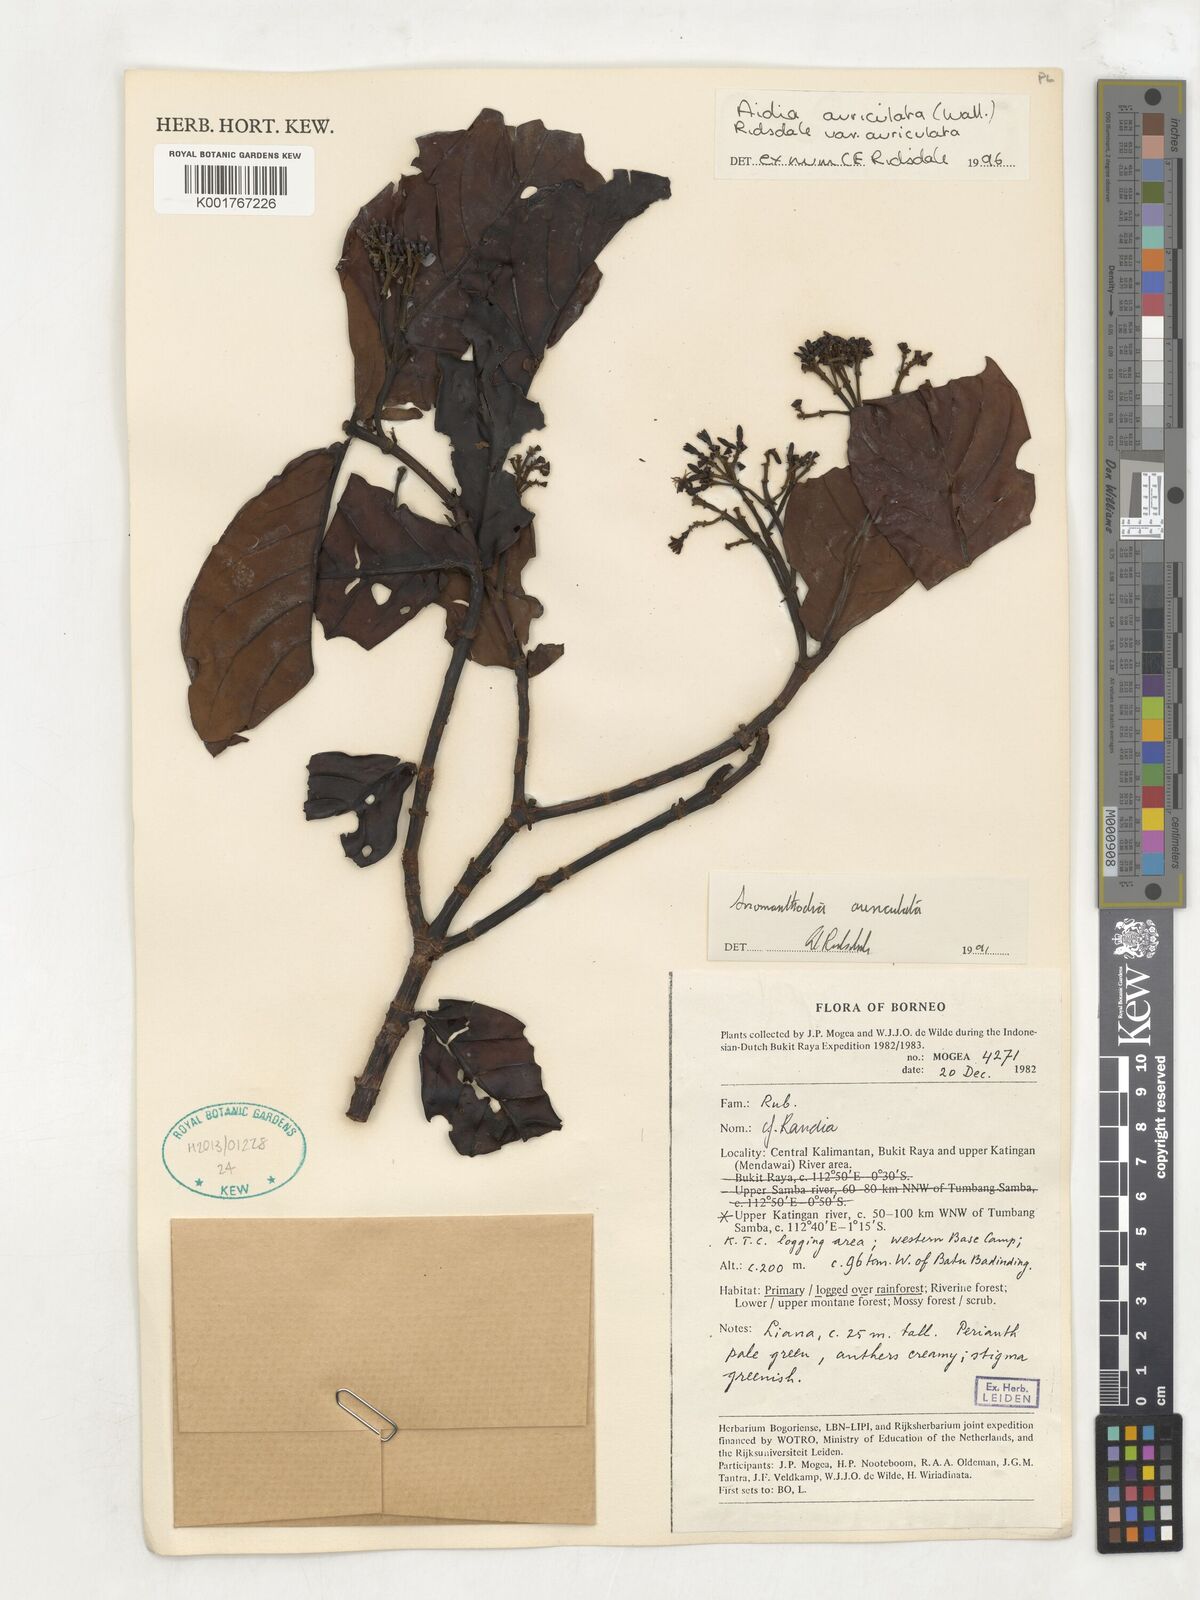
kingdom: Plantae
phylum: Tracheophyta
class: Magnoliopsida
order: Gentianales
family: Rubiaceae
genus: Aidia
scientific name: Aidia auriculata
